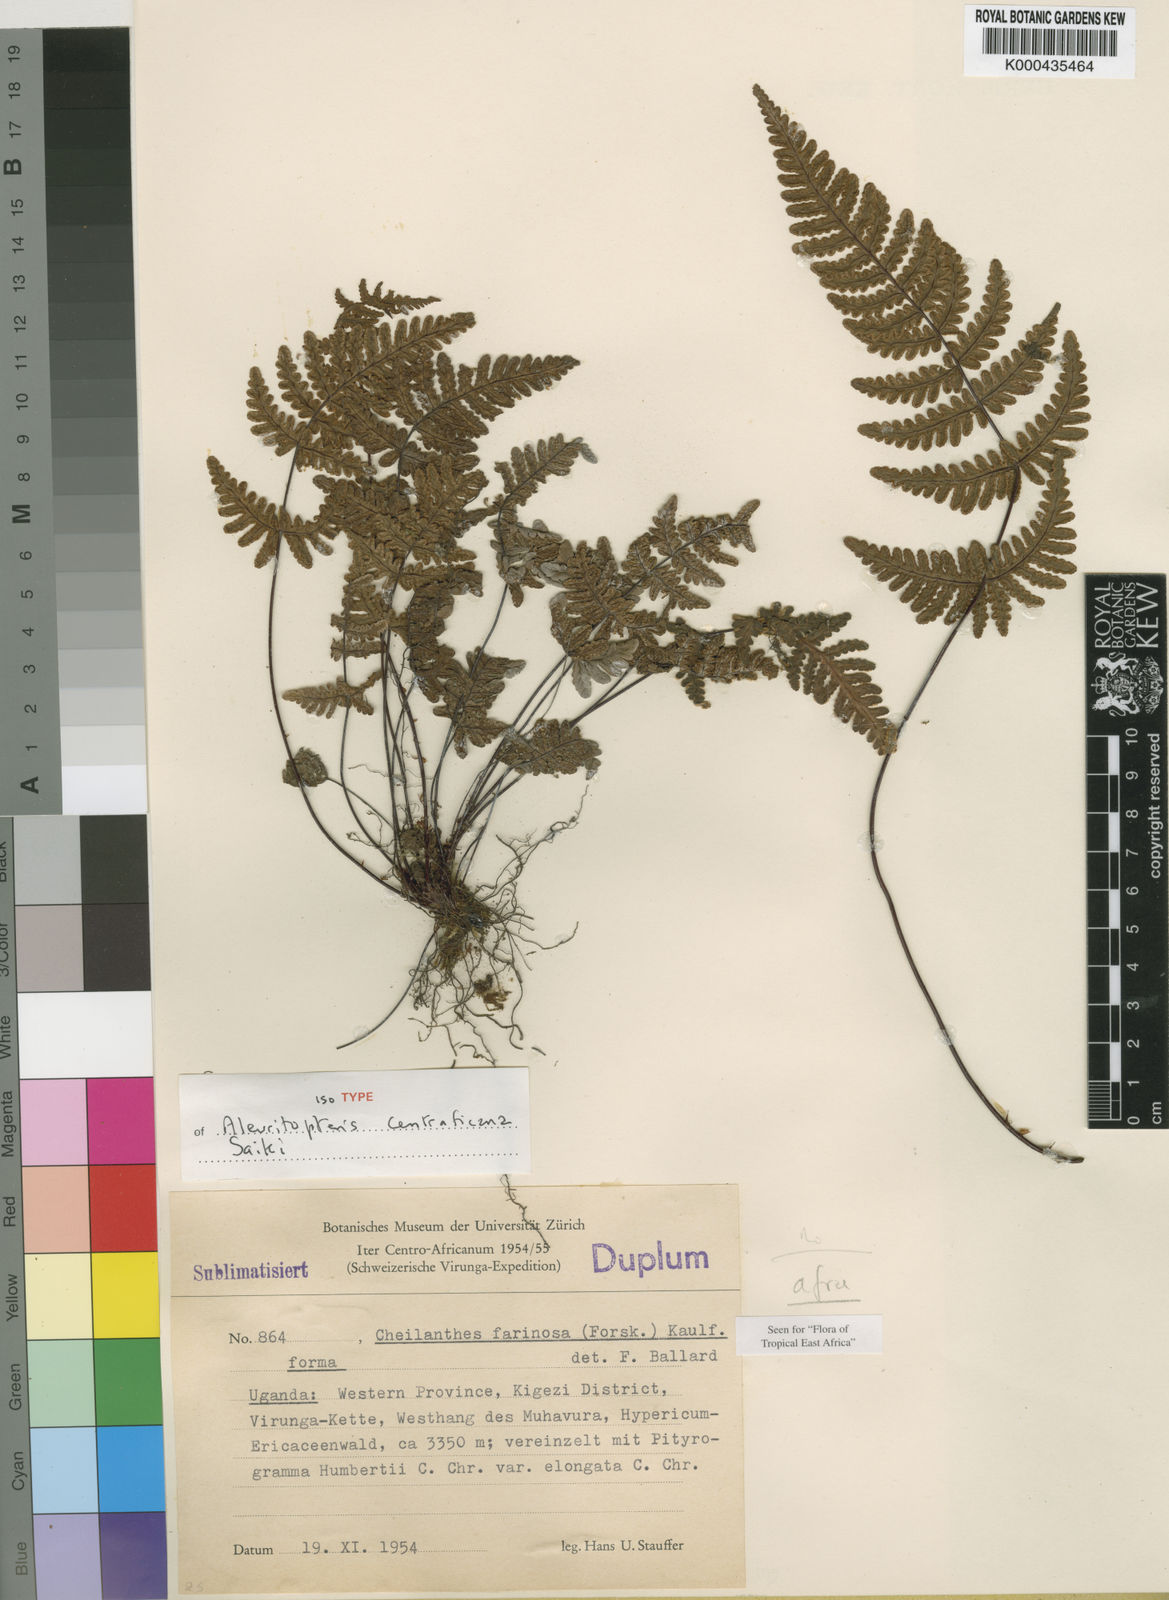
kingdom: Plantae
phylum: Tracheophyta
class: Polypodiopsida
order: Polypodiales
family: Pteridaceae
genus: Aleuritopteris
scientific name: Aleuritopteris farinosa
